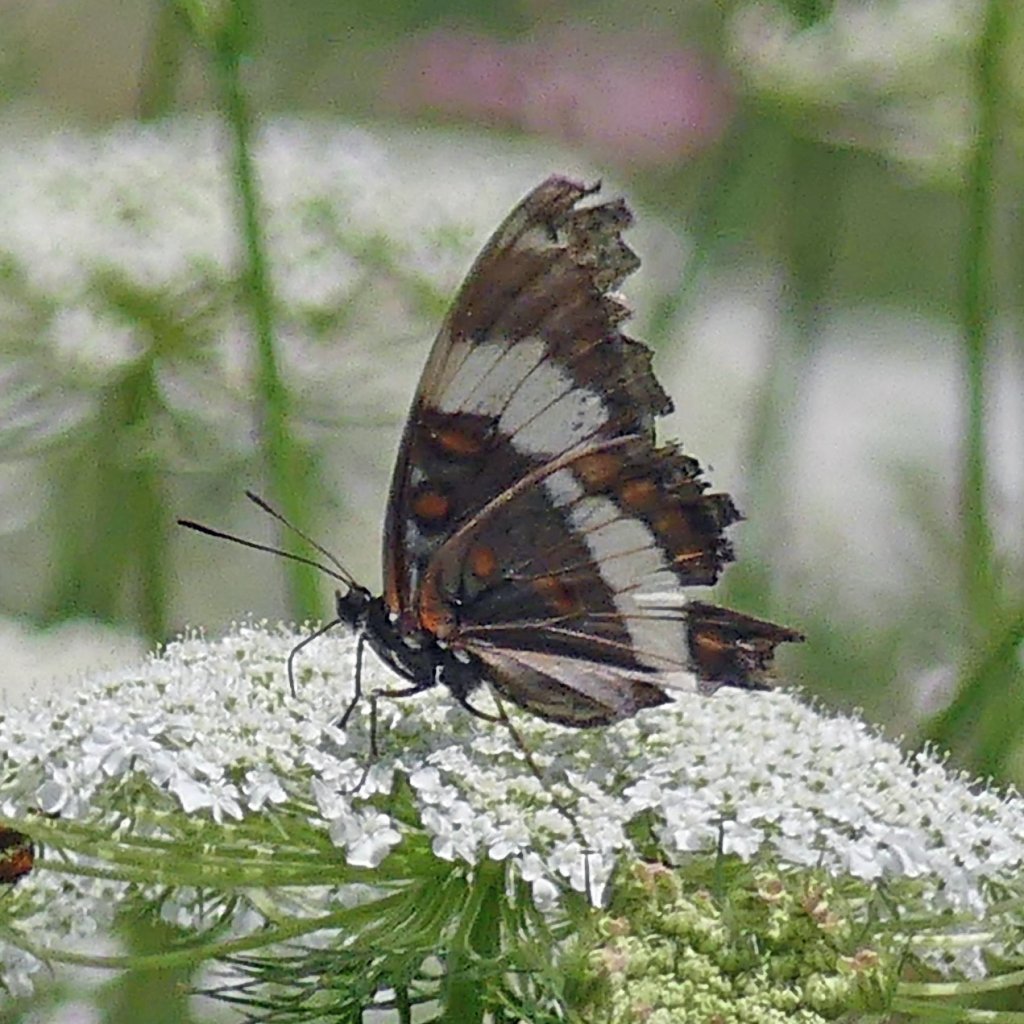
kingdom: Animalia
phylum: Arthropoda
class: Insecta
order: Lepidoptera
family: Nymphalidae
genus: Limenitis
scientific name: Limenitis arthemis
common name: Red-spotted Admiral
